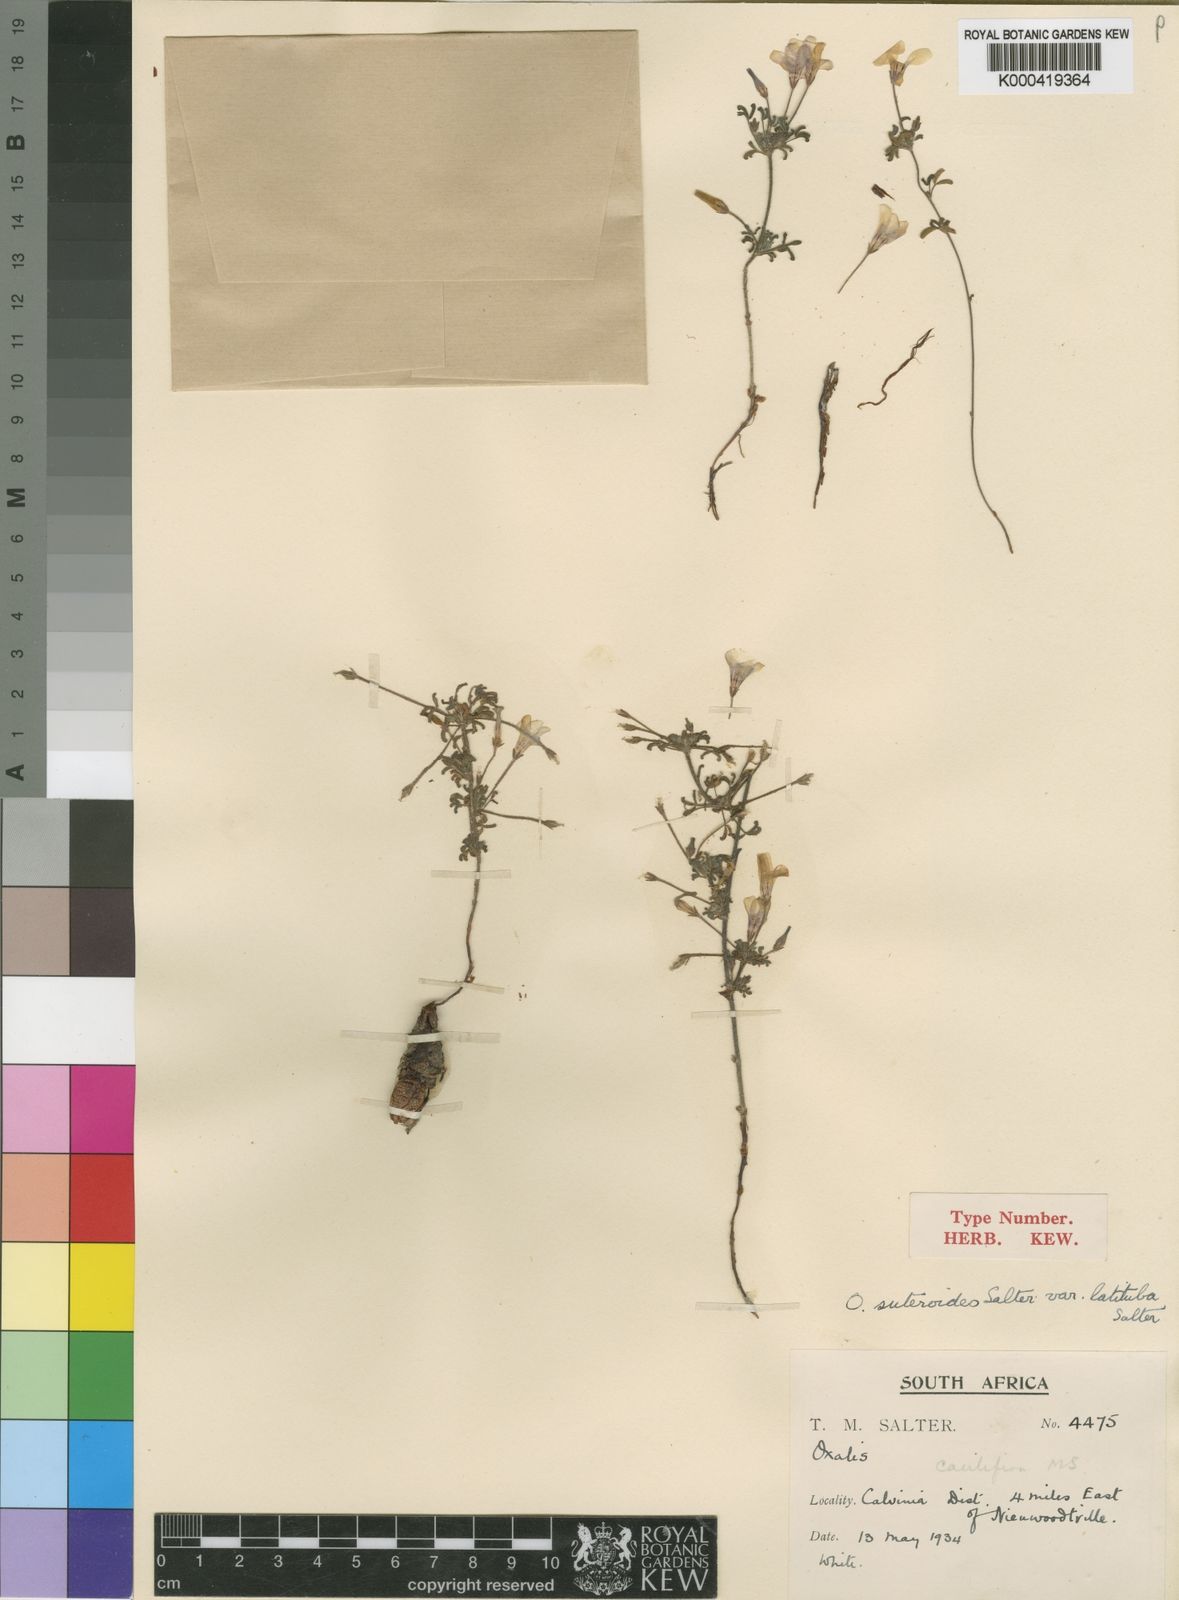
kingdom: Plantae
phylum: Tracheophyta
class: Magnoliopsida
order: Oxalidales
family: Oxalidaceae
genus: Oxalis
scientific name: Oxalis suteroides
